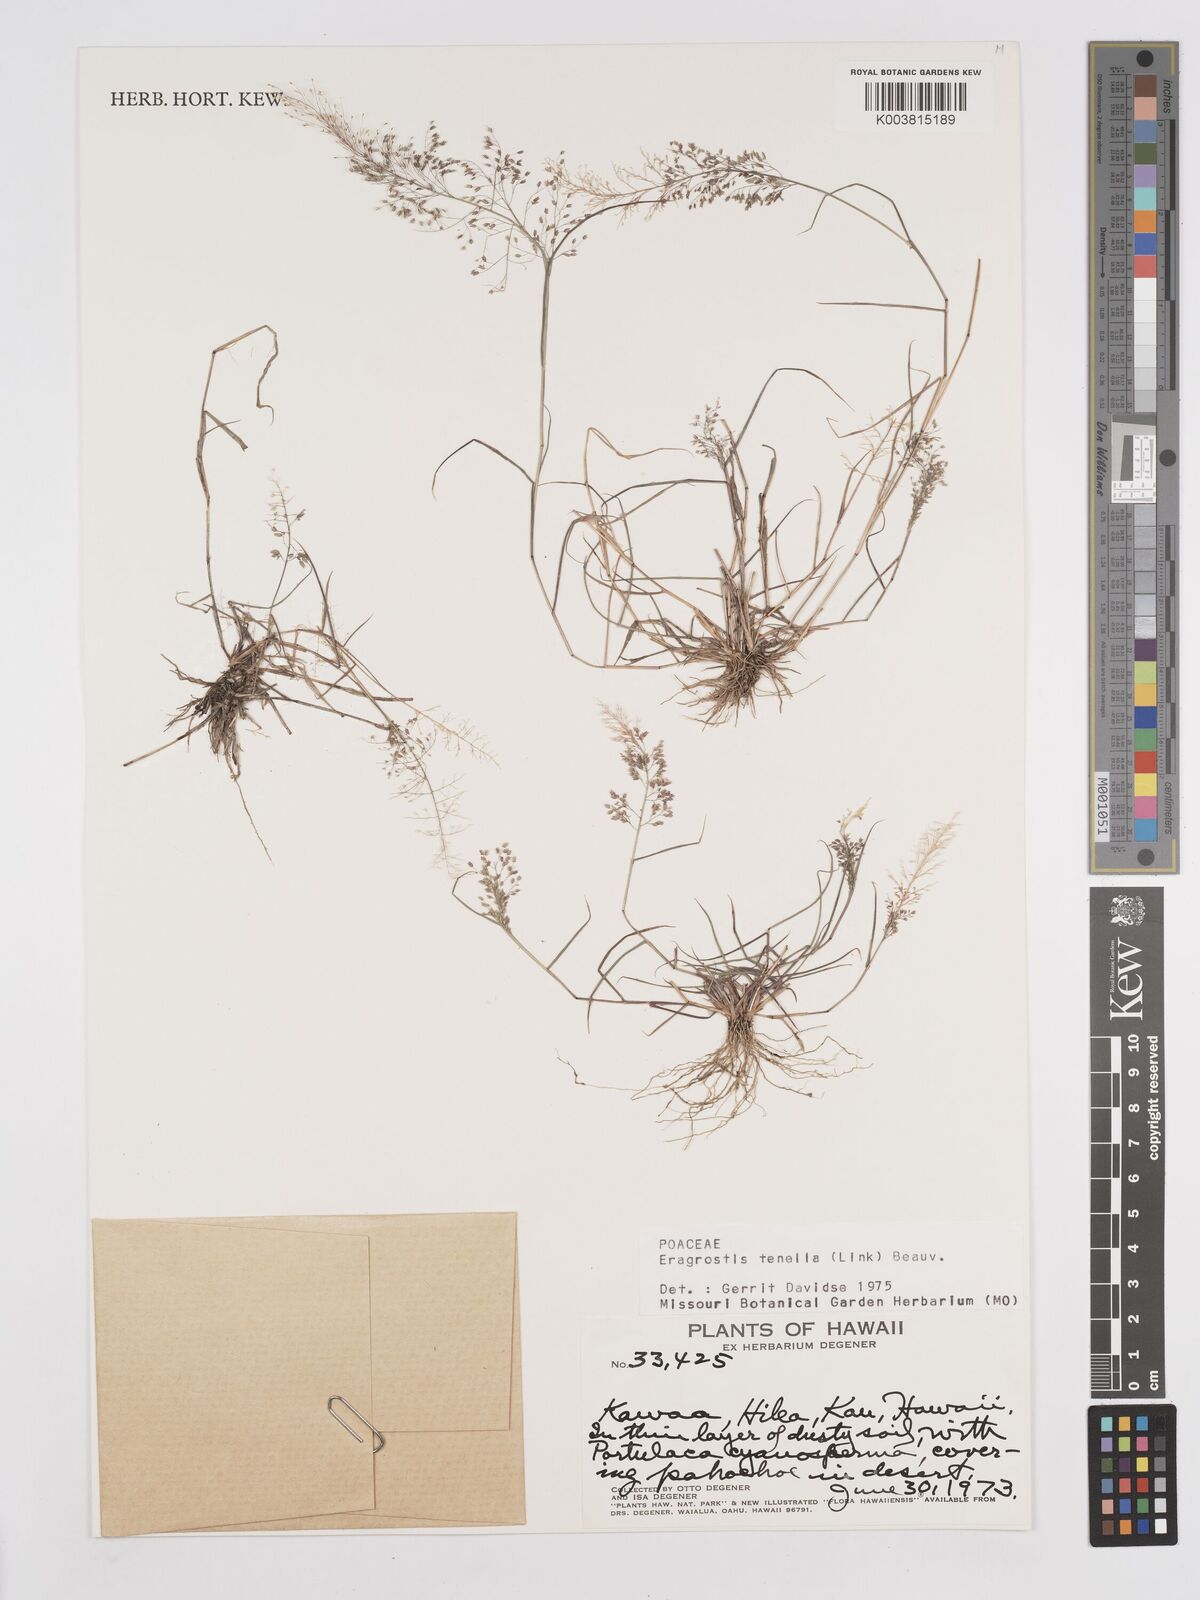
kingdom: Plantae
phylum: Tracheophyta
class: Liliopsida
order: Poales
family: Poaceae
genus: Eragrostis
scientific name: Eragrostis tenella
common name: Japanese lovegrass
